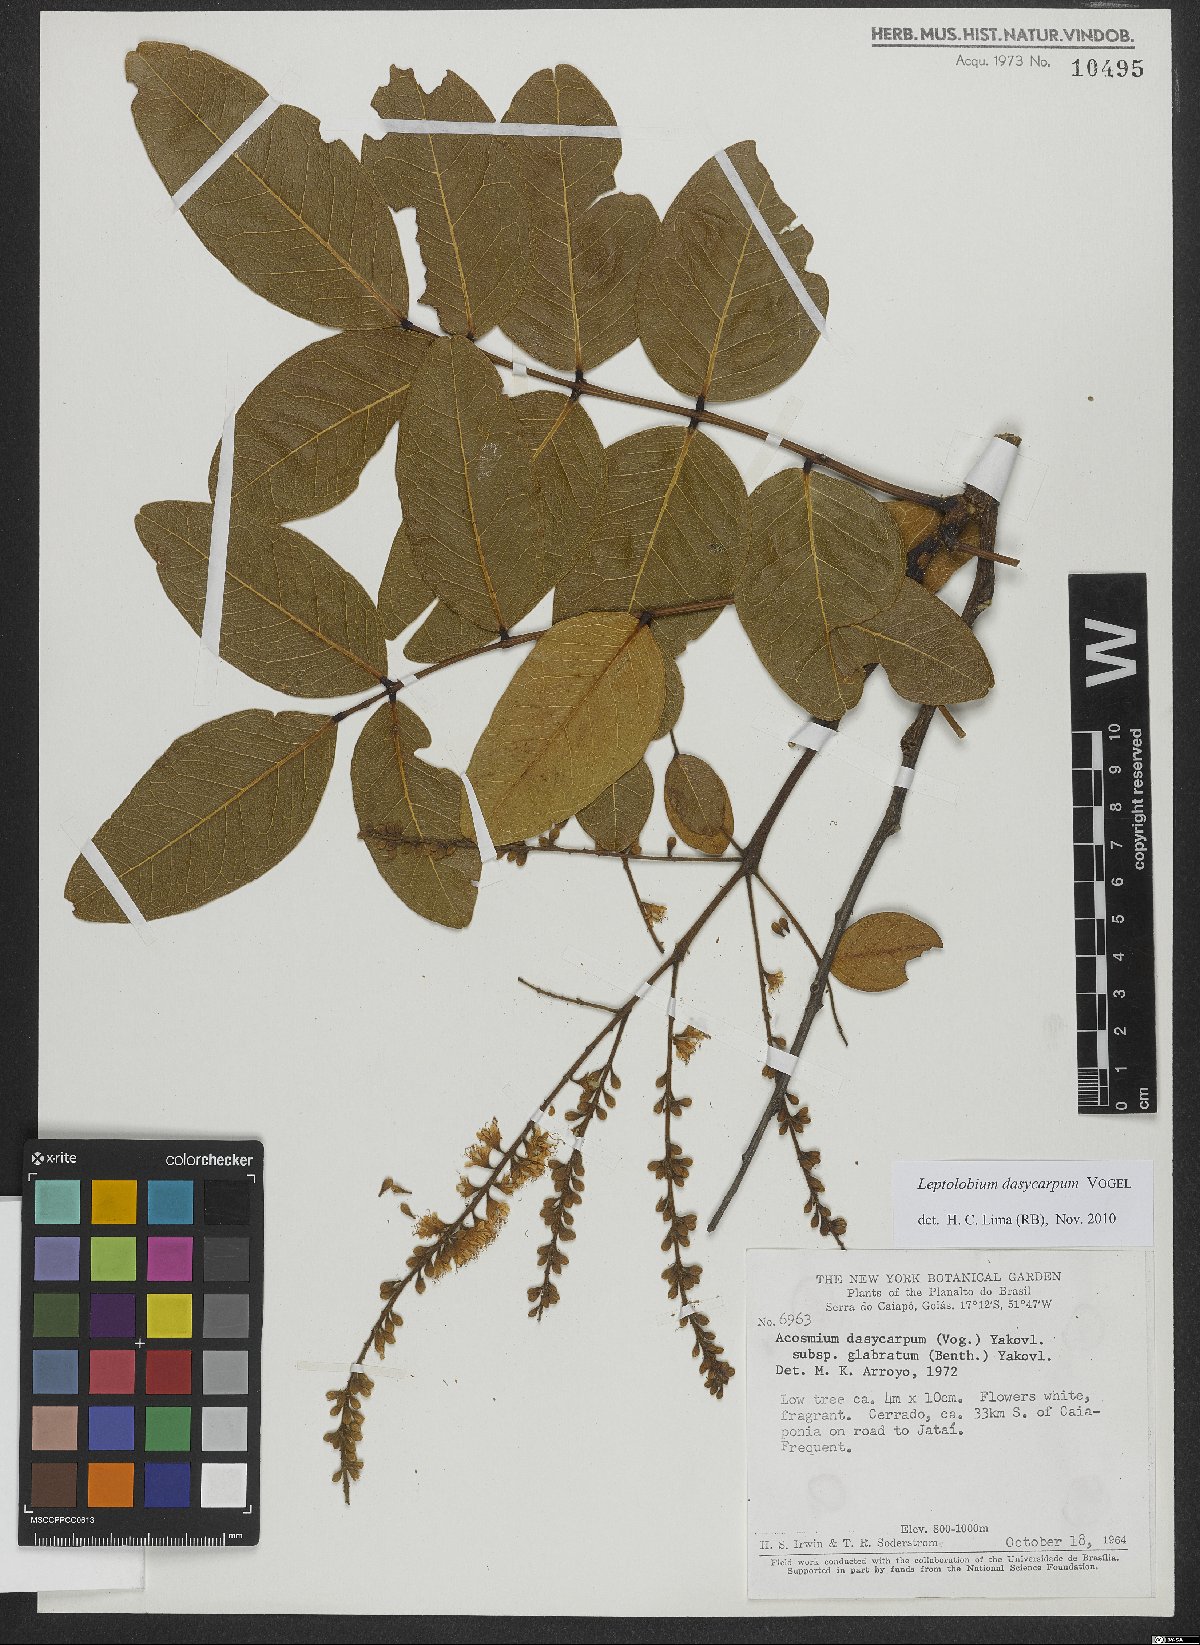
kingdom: Plantae
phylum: Tracheophyta
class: Magnoliopsida
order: Fabales
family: Fabaceae
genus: Leptolobium
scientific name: Leptolobium dasycarpum
